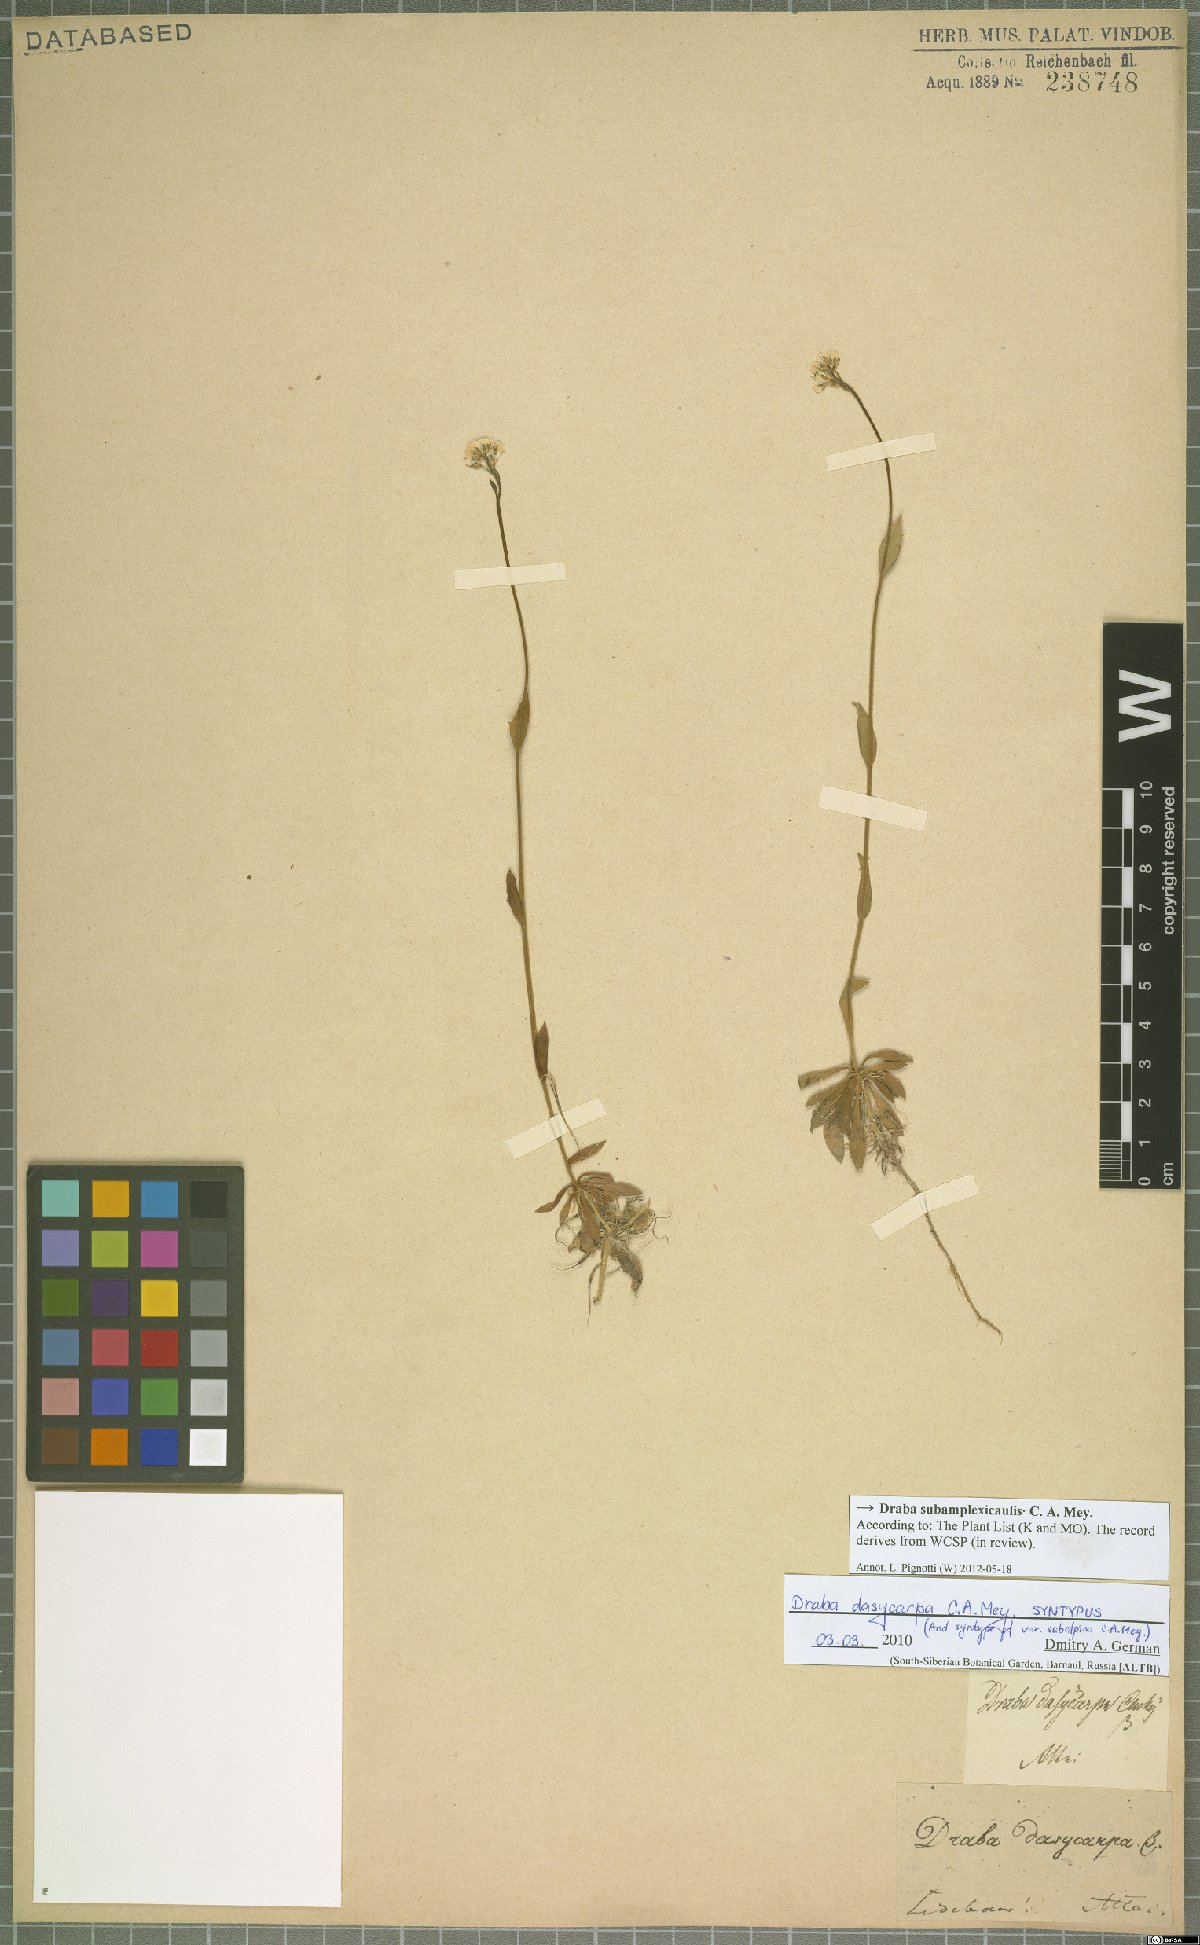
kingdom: Plantae
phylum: Tracheophyta
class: Magnoliopsida
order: Brassicales
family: Brassicaceae
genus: Draba
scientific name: Draba subamplexicaulis
